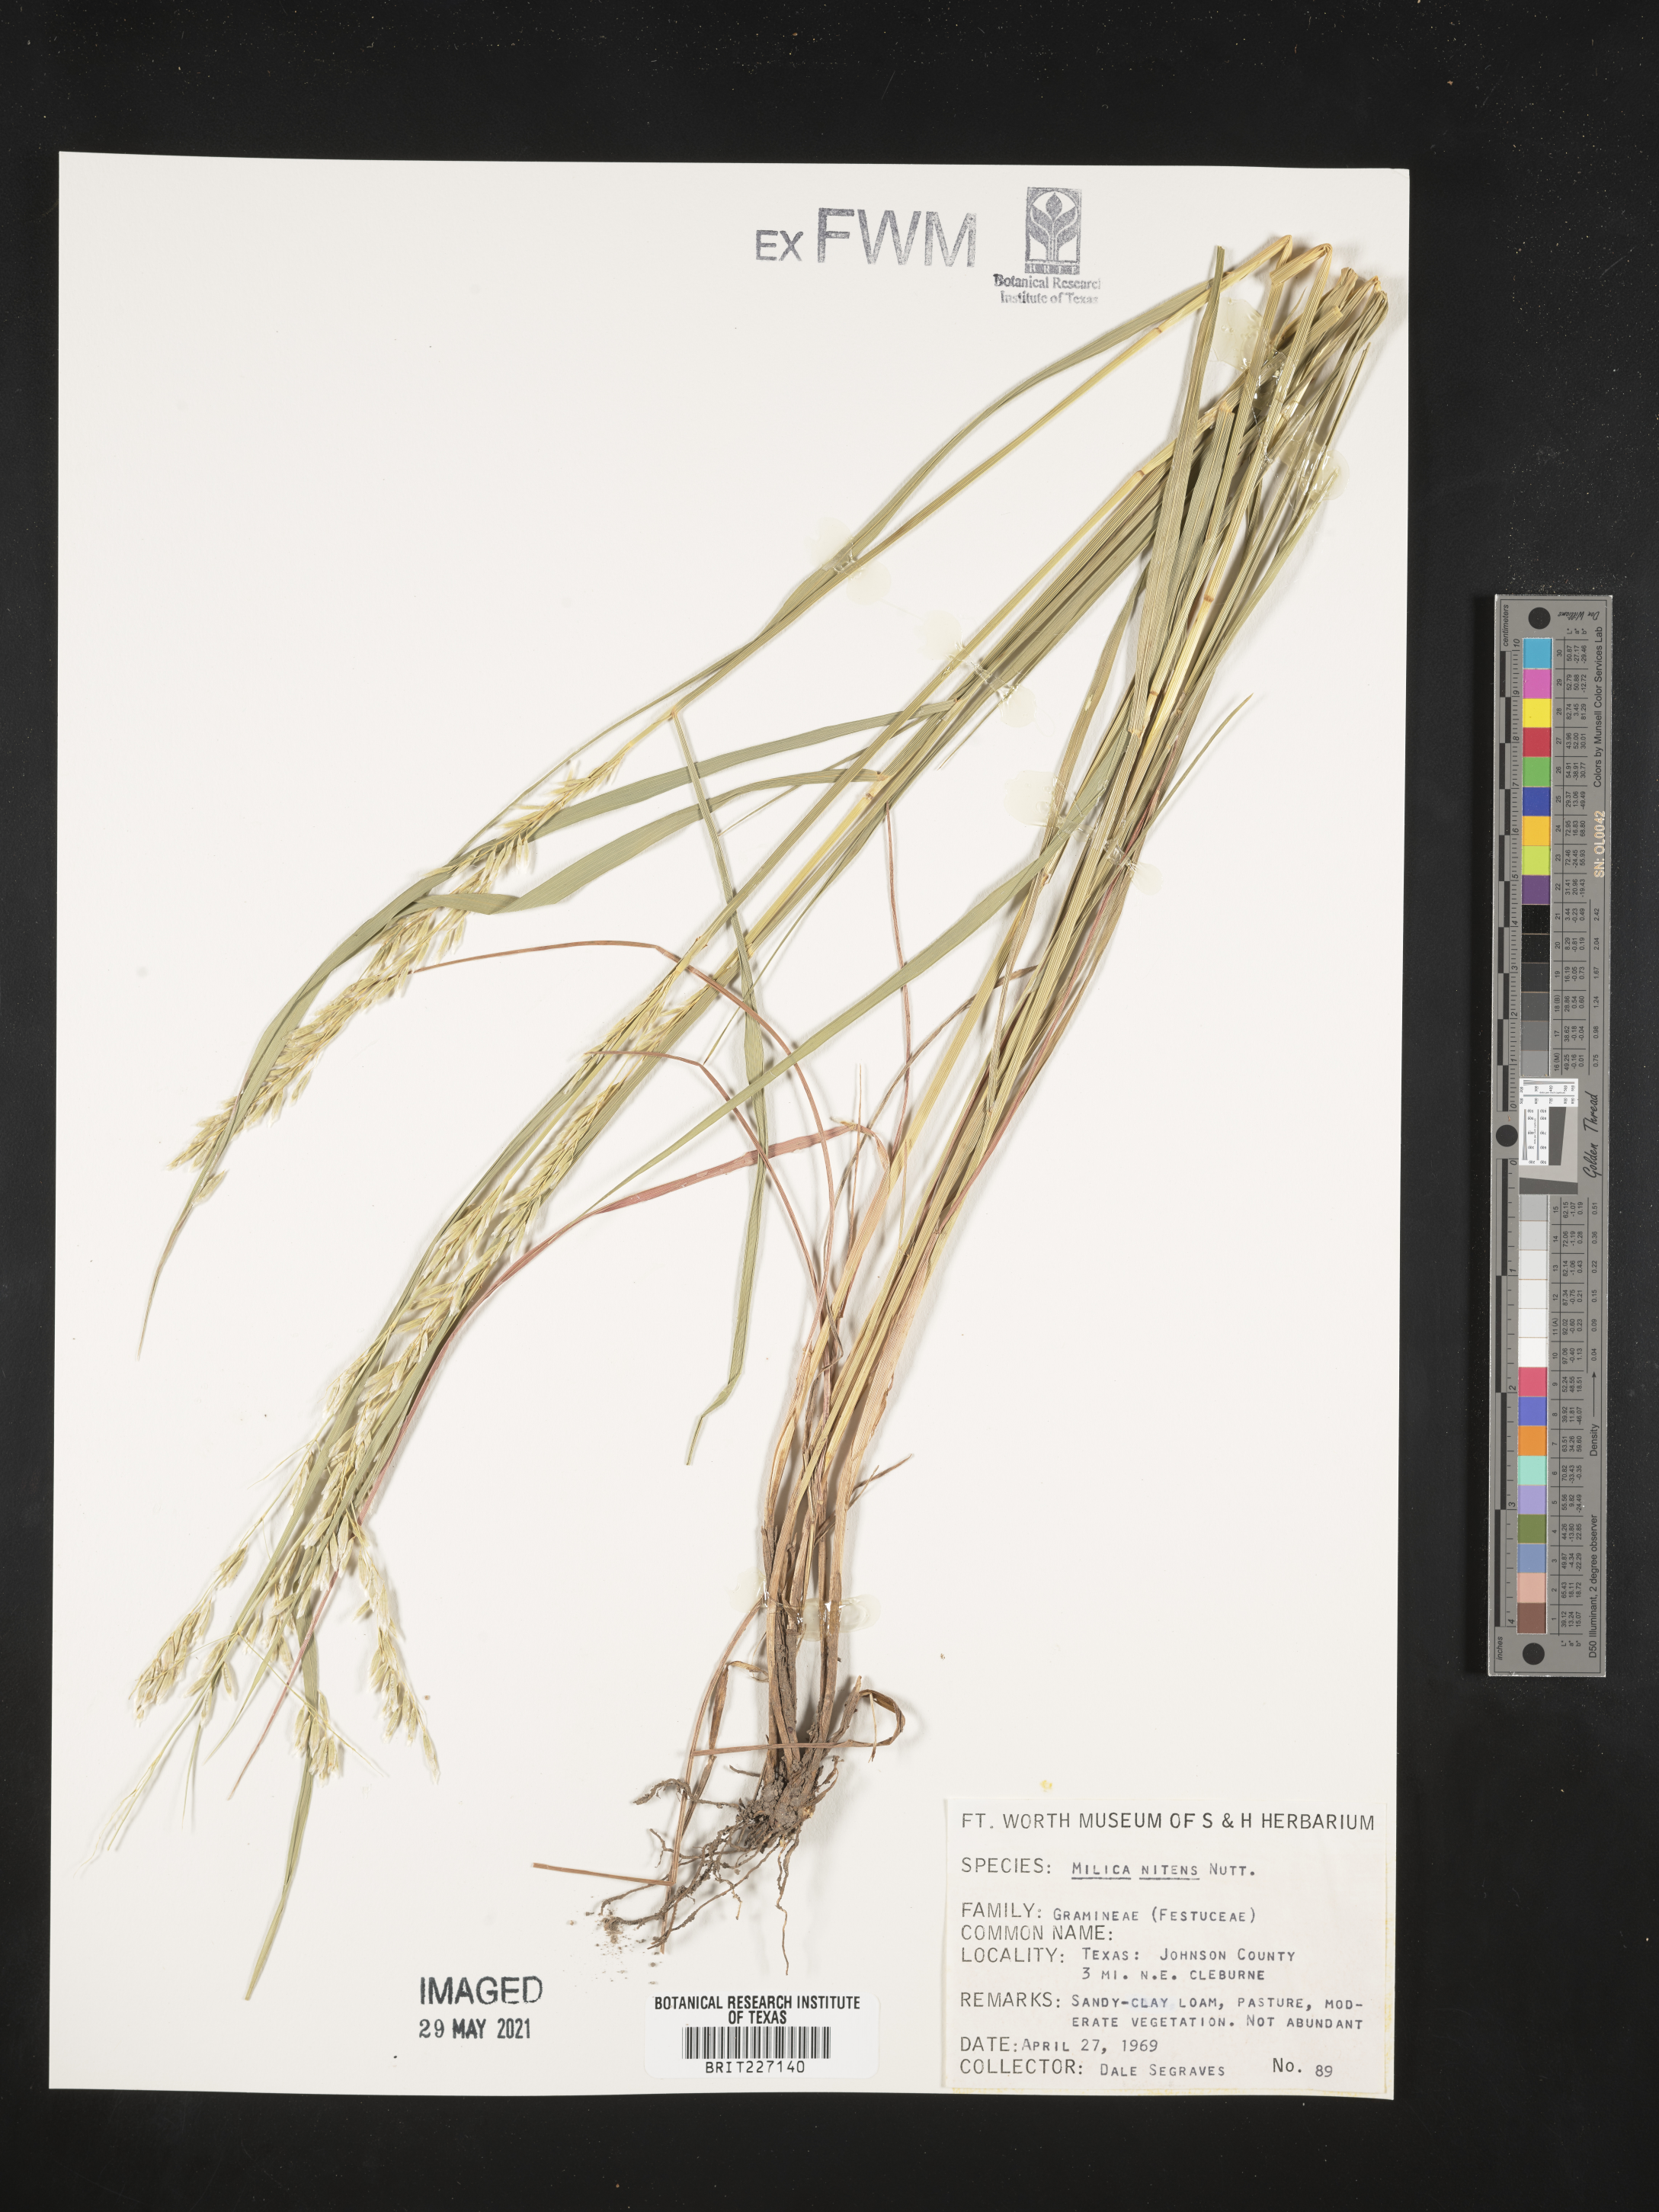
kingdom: Plantae
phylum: Tracheophyta
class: Liliopsida
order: Poales
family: Poaceae
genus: Melica
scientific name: Melica nitens
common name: Three-flower melic
